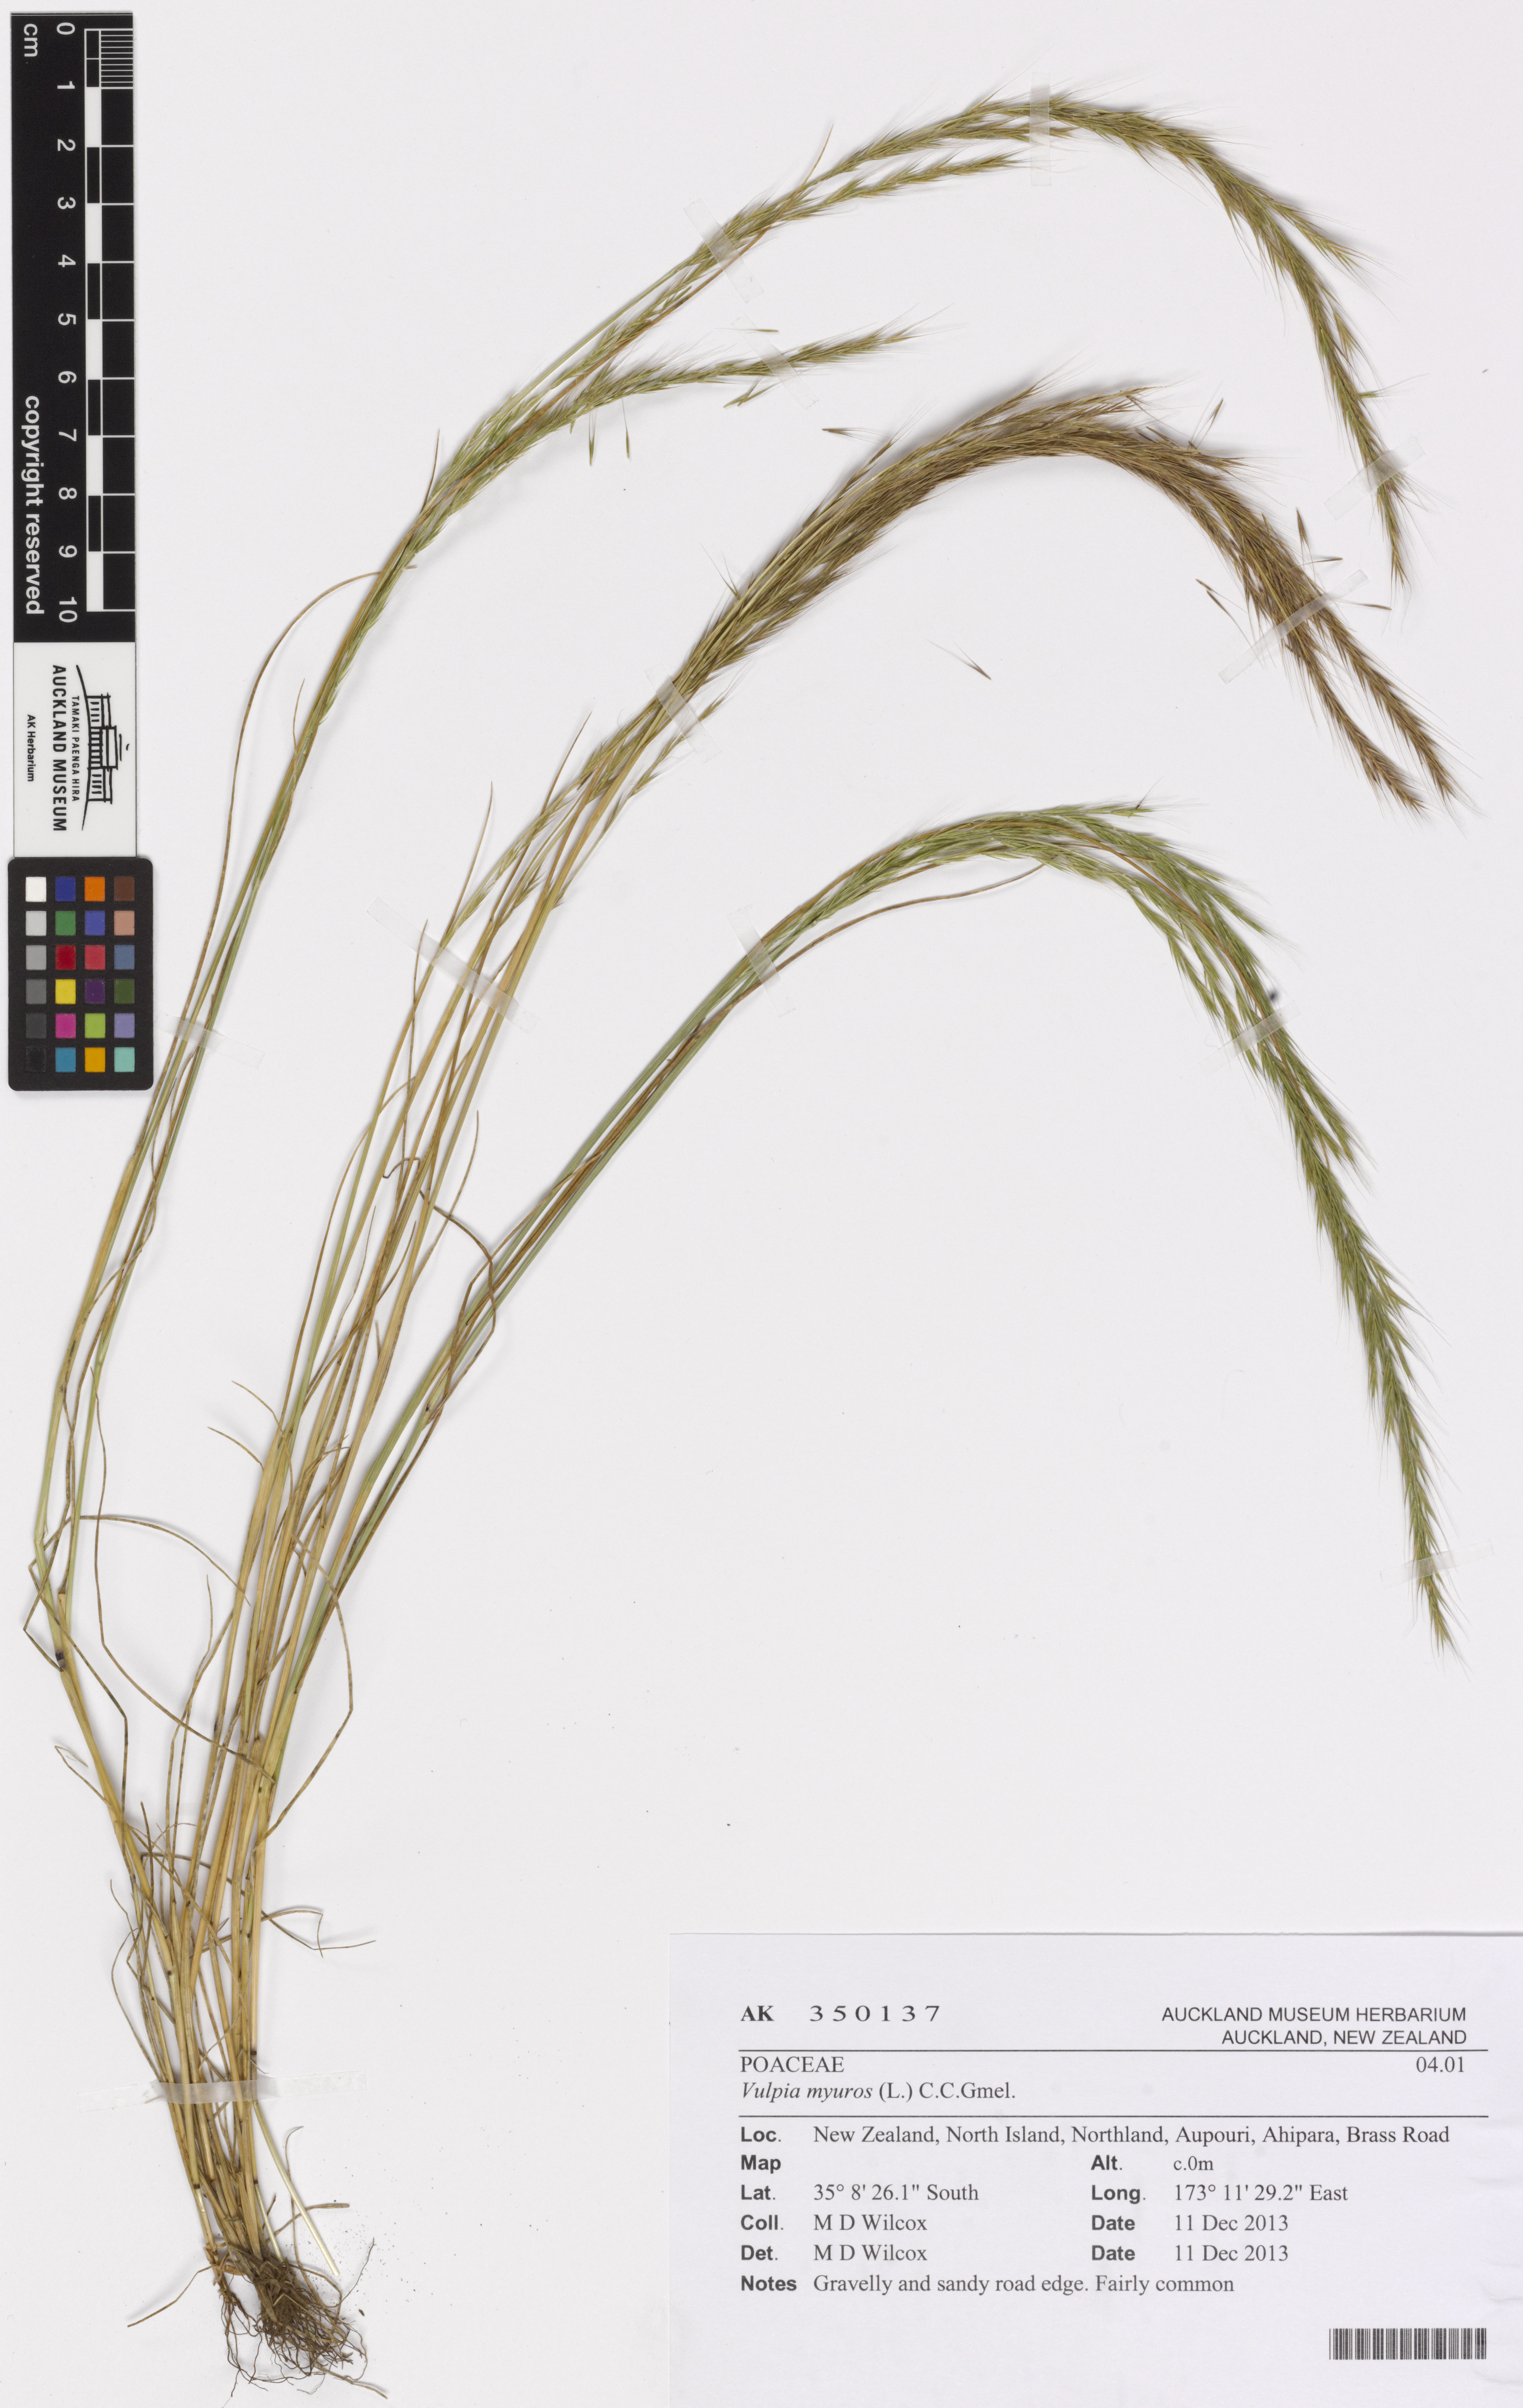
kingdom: Plantae
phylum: Tracheophyta
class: Liliopsida
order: Poales
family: Poaceae
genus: Festuca
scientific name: Festuca myuros
